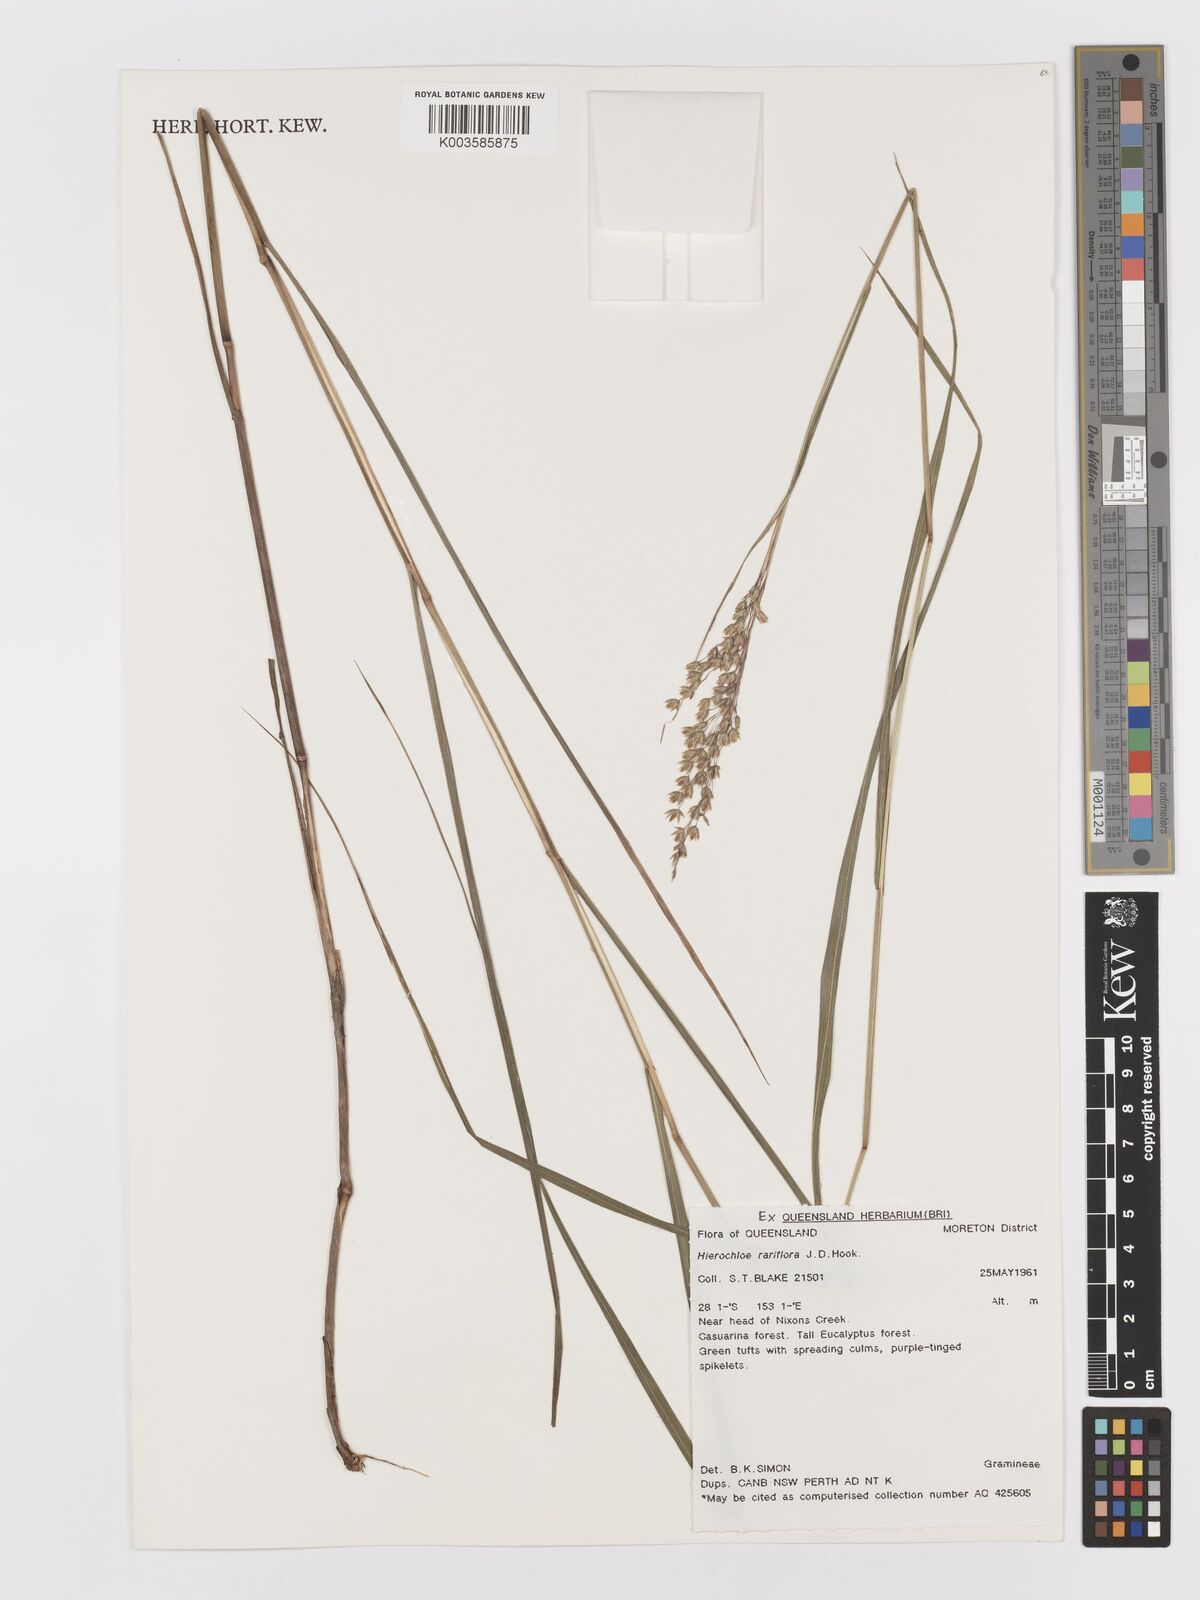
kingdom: Plantae
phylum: Tracheophyta
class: Liliopsida
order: Poales
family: Poaceae
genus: Anthoxanthum
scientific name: Anthoxanthum rariflorum
